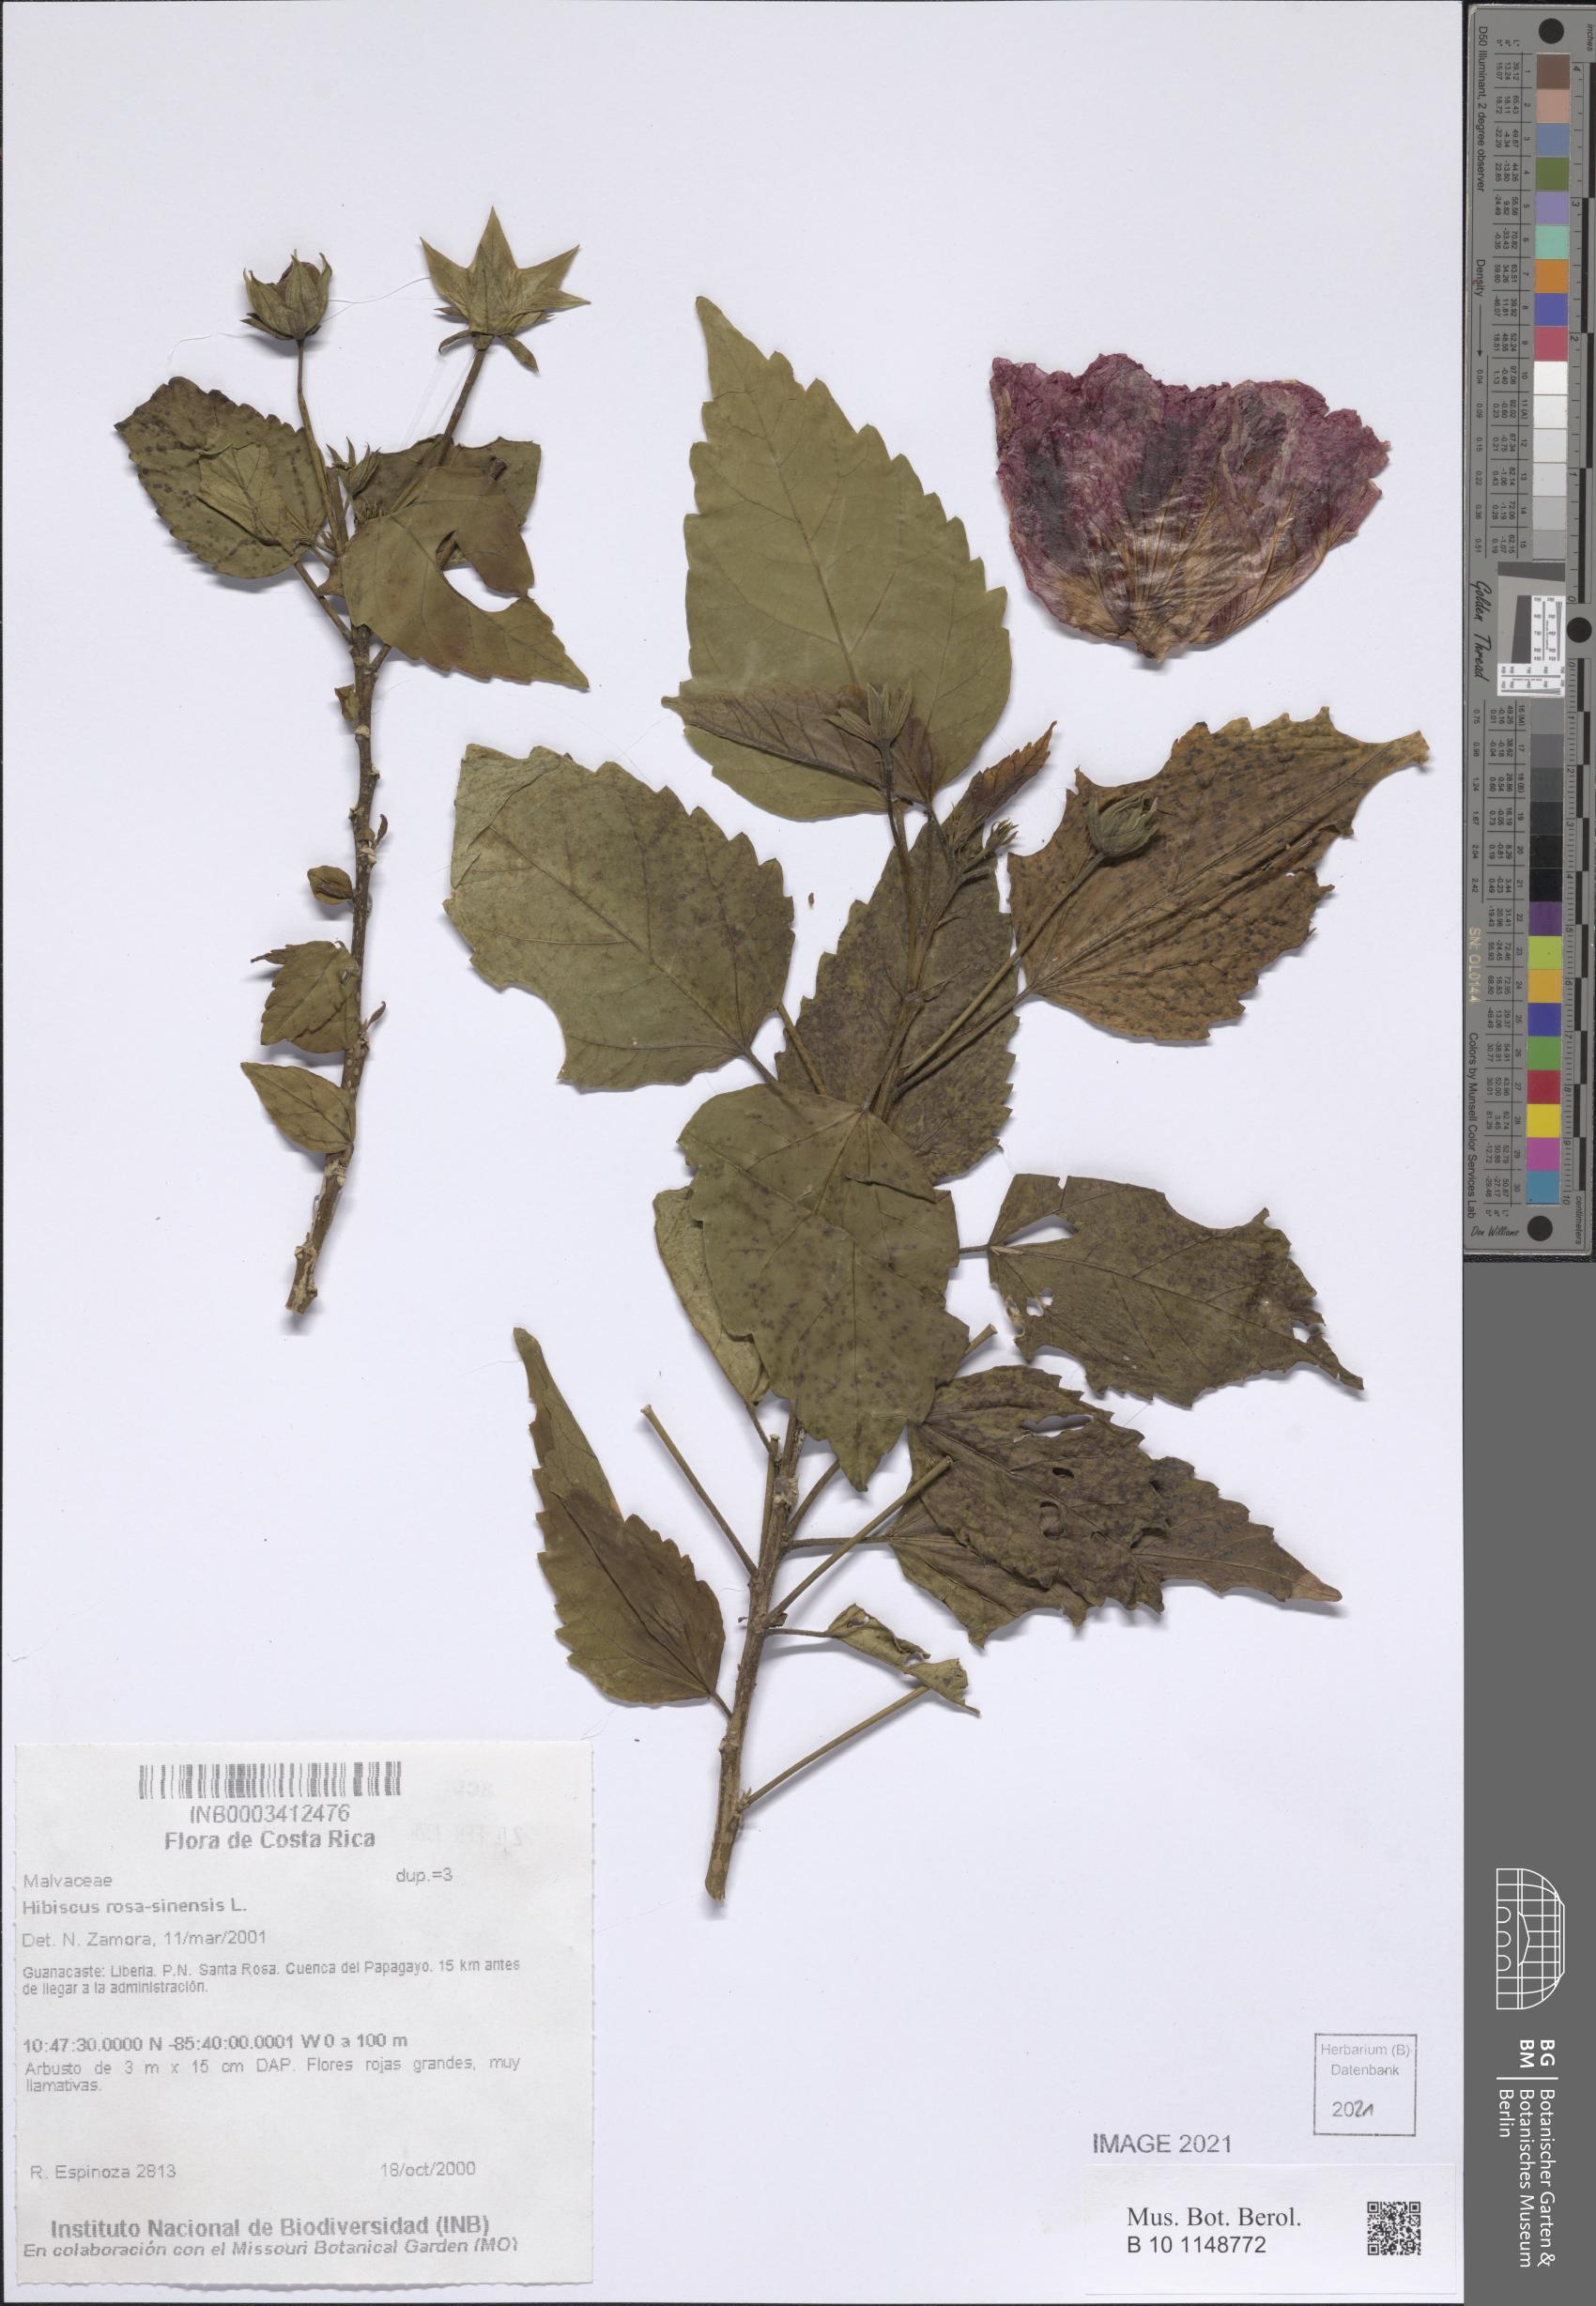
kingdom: Plantae
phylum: Tracheophyta
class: Magnoliopsida
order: Malvales
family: Malvaceae
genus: Hibiscus
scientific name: Hibiscus rosa-sinensis
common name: Hibiscus
